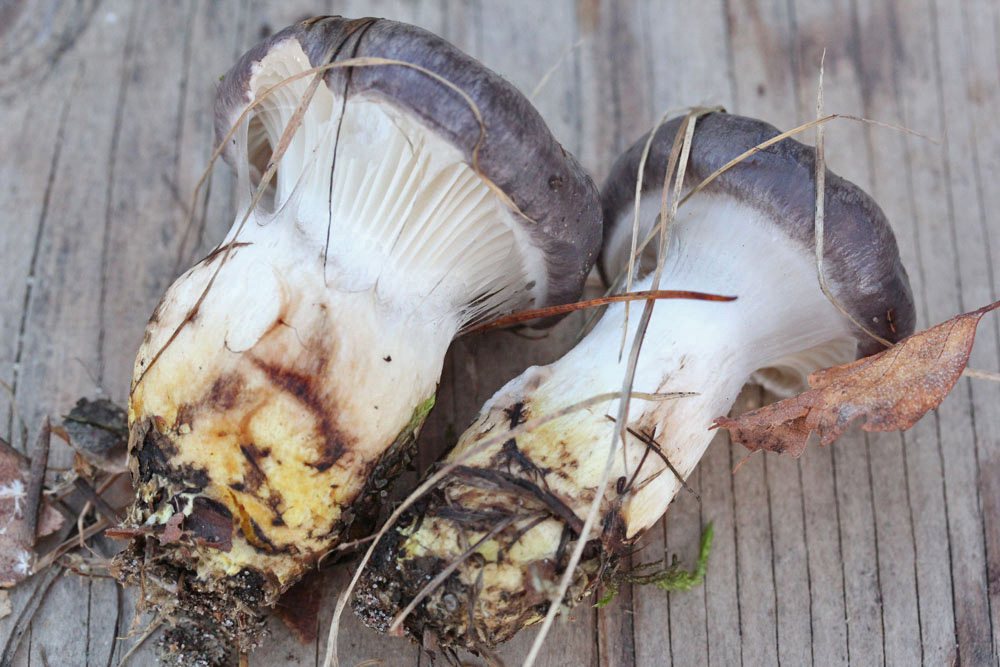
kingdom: Fungi
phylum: Basidiomycota
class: Agaricomycetes
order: Boletales
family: Gomphidiaceae
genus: Gomphidius
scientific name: Gomphidius glutinosus
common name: grå slimslør
